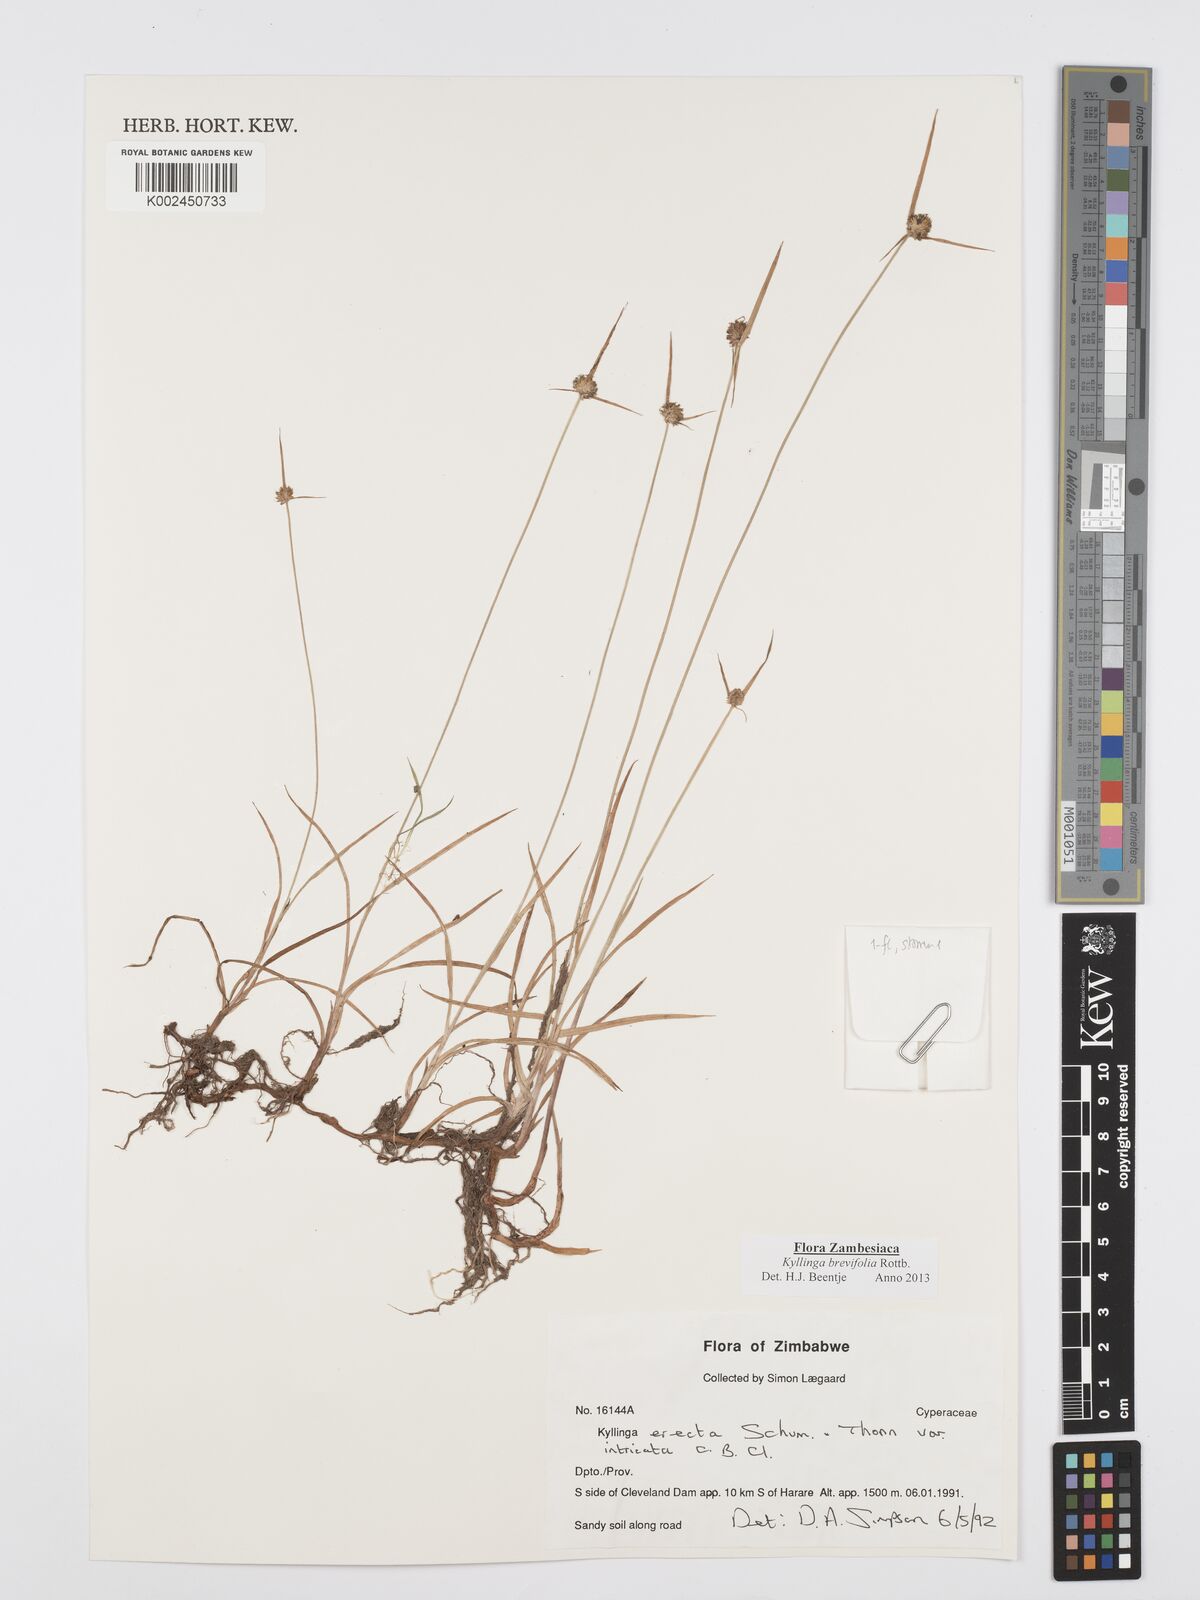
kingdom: Plantae
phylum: Tracheophyta
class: Liliopsida
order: Poales
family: Cyperaceae
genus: Cyperus
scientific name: Cyperus brevifolius
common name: Globe kyllinga
